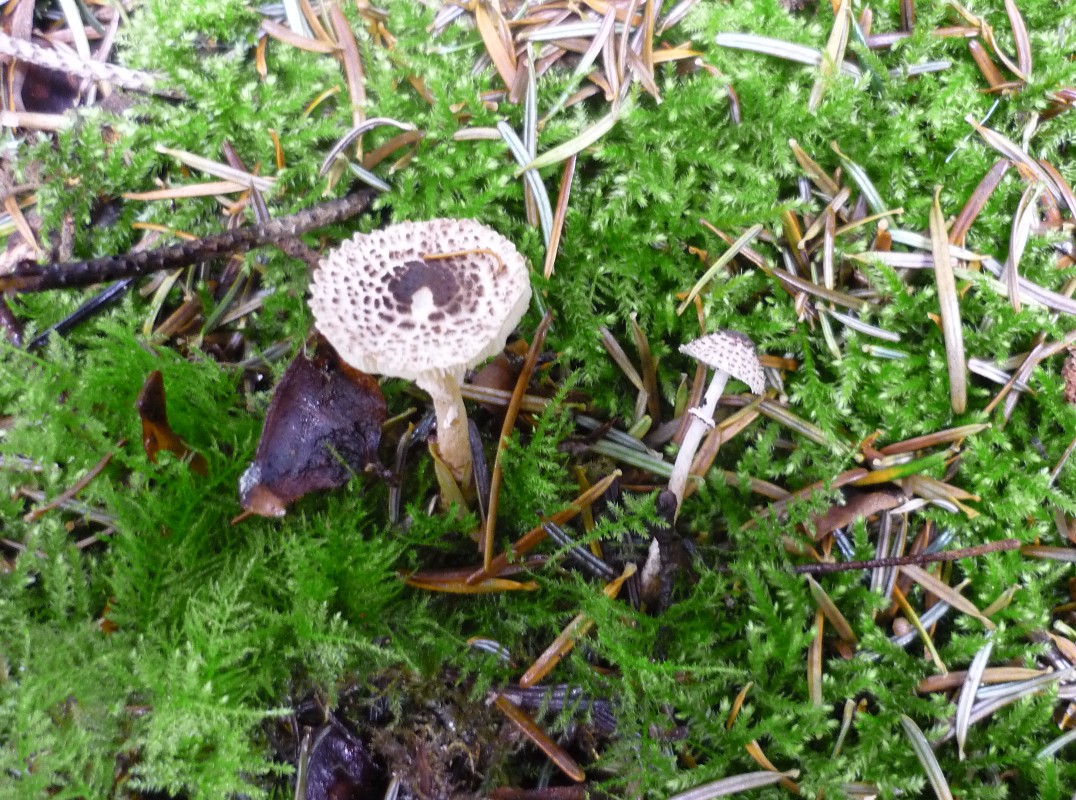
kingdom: Fungi
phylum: Basidiomycota
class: Agaricomycetes
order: Agaricales
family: Agaricaceae
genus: Lepiota
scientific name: Lepiota felina
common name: sortskællet parasolhat
